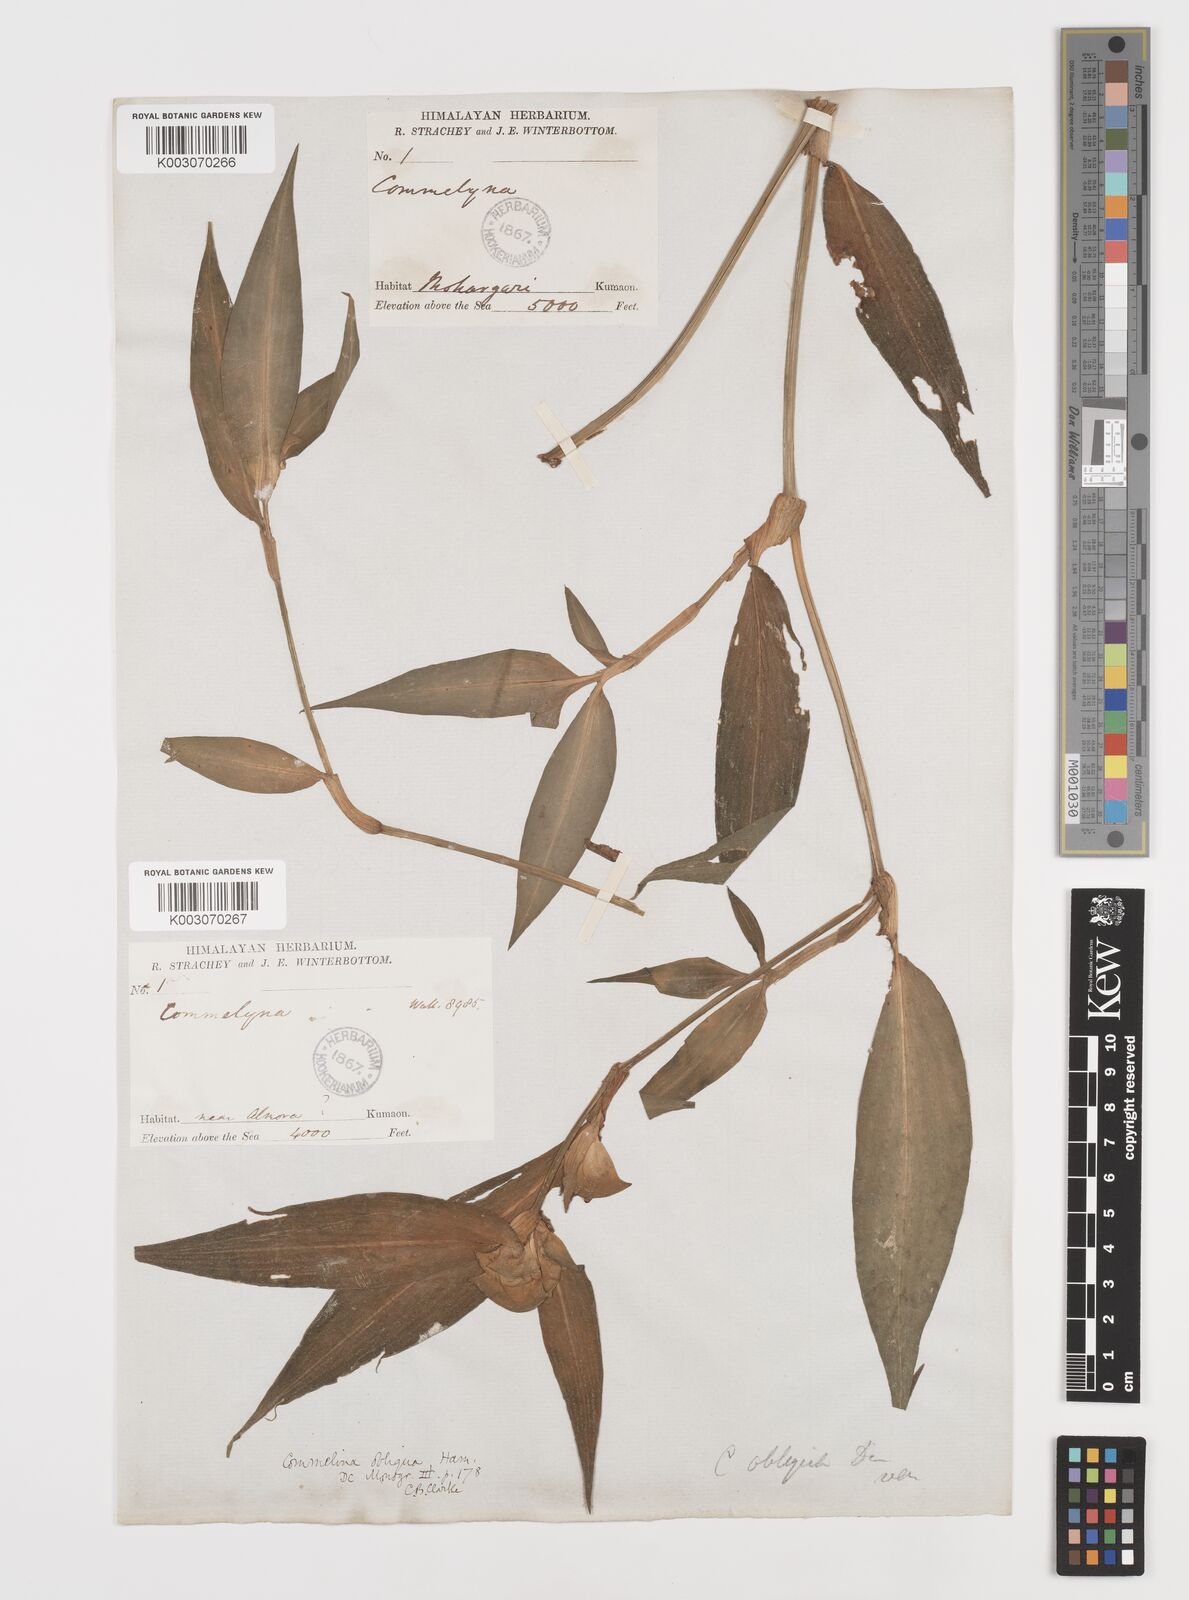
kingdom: Plantae
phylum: Tracheophyta
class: Liliopsida
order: Commelinales
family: Commelinaceae
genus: Commelina
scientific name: Commelina paludosa
